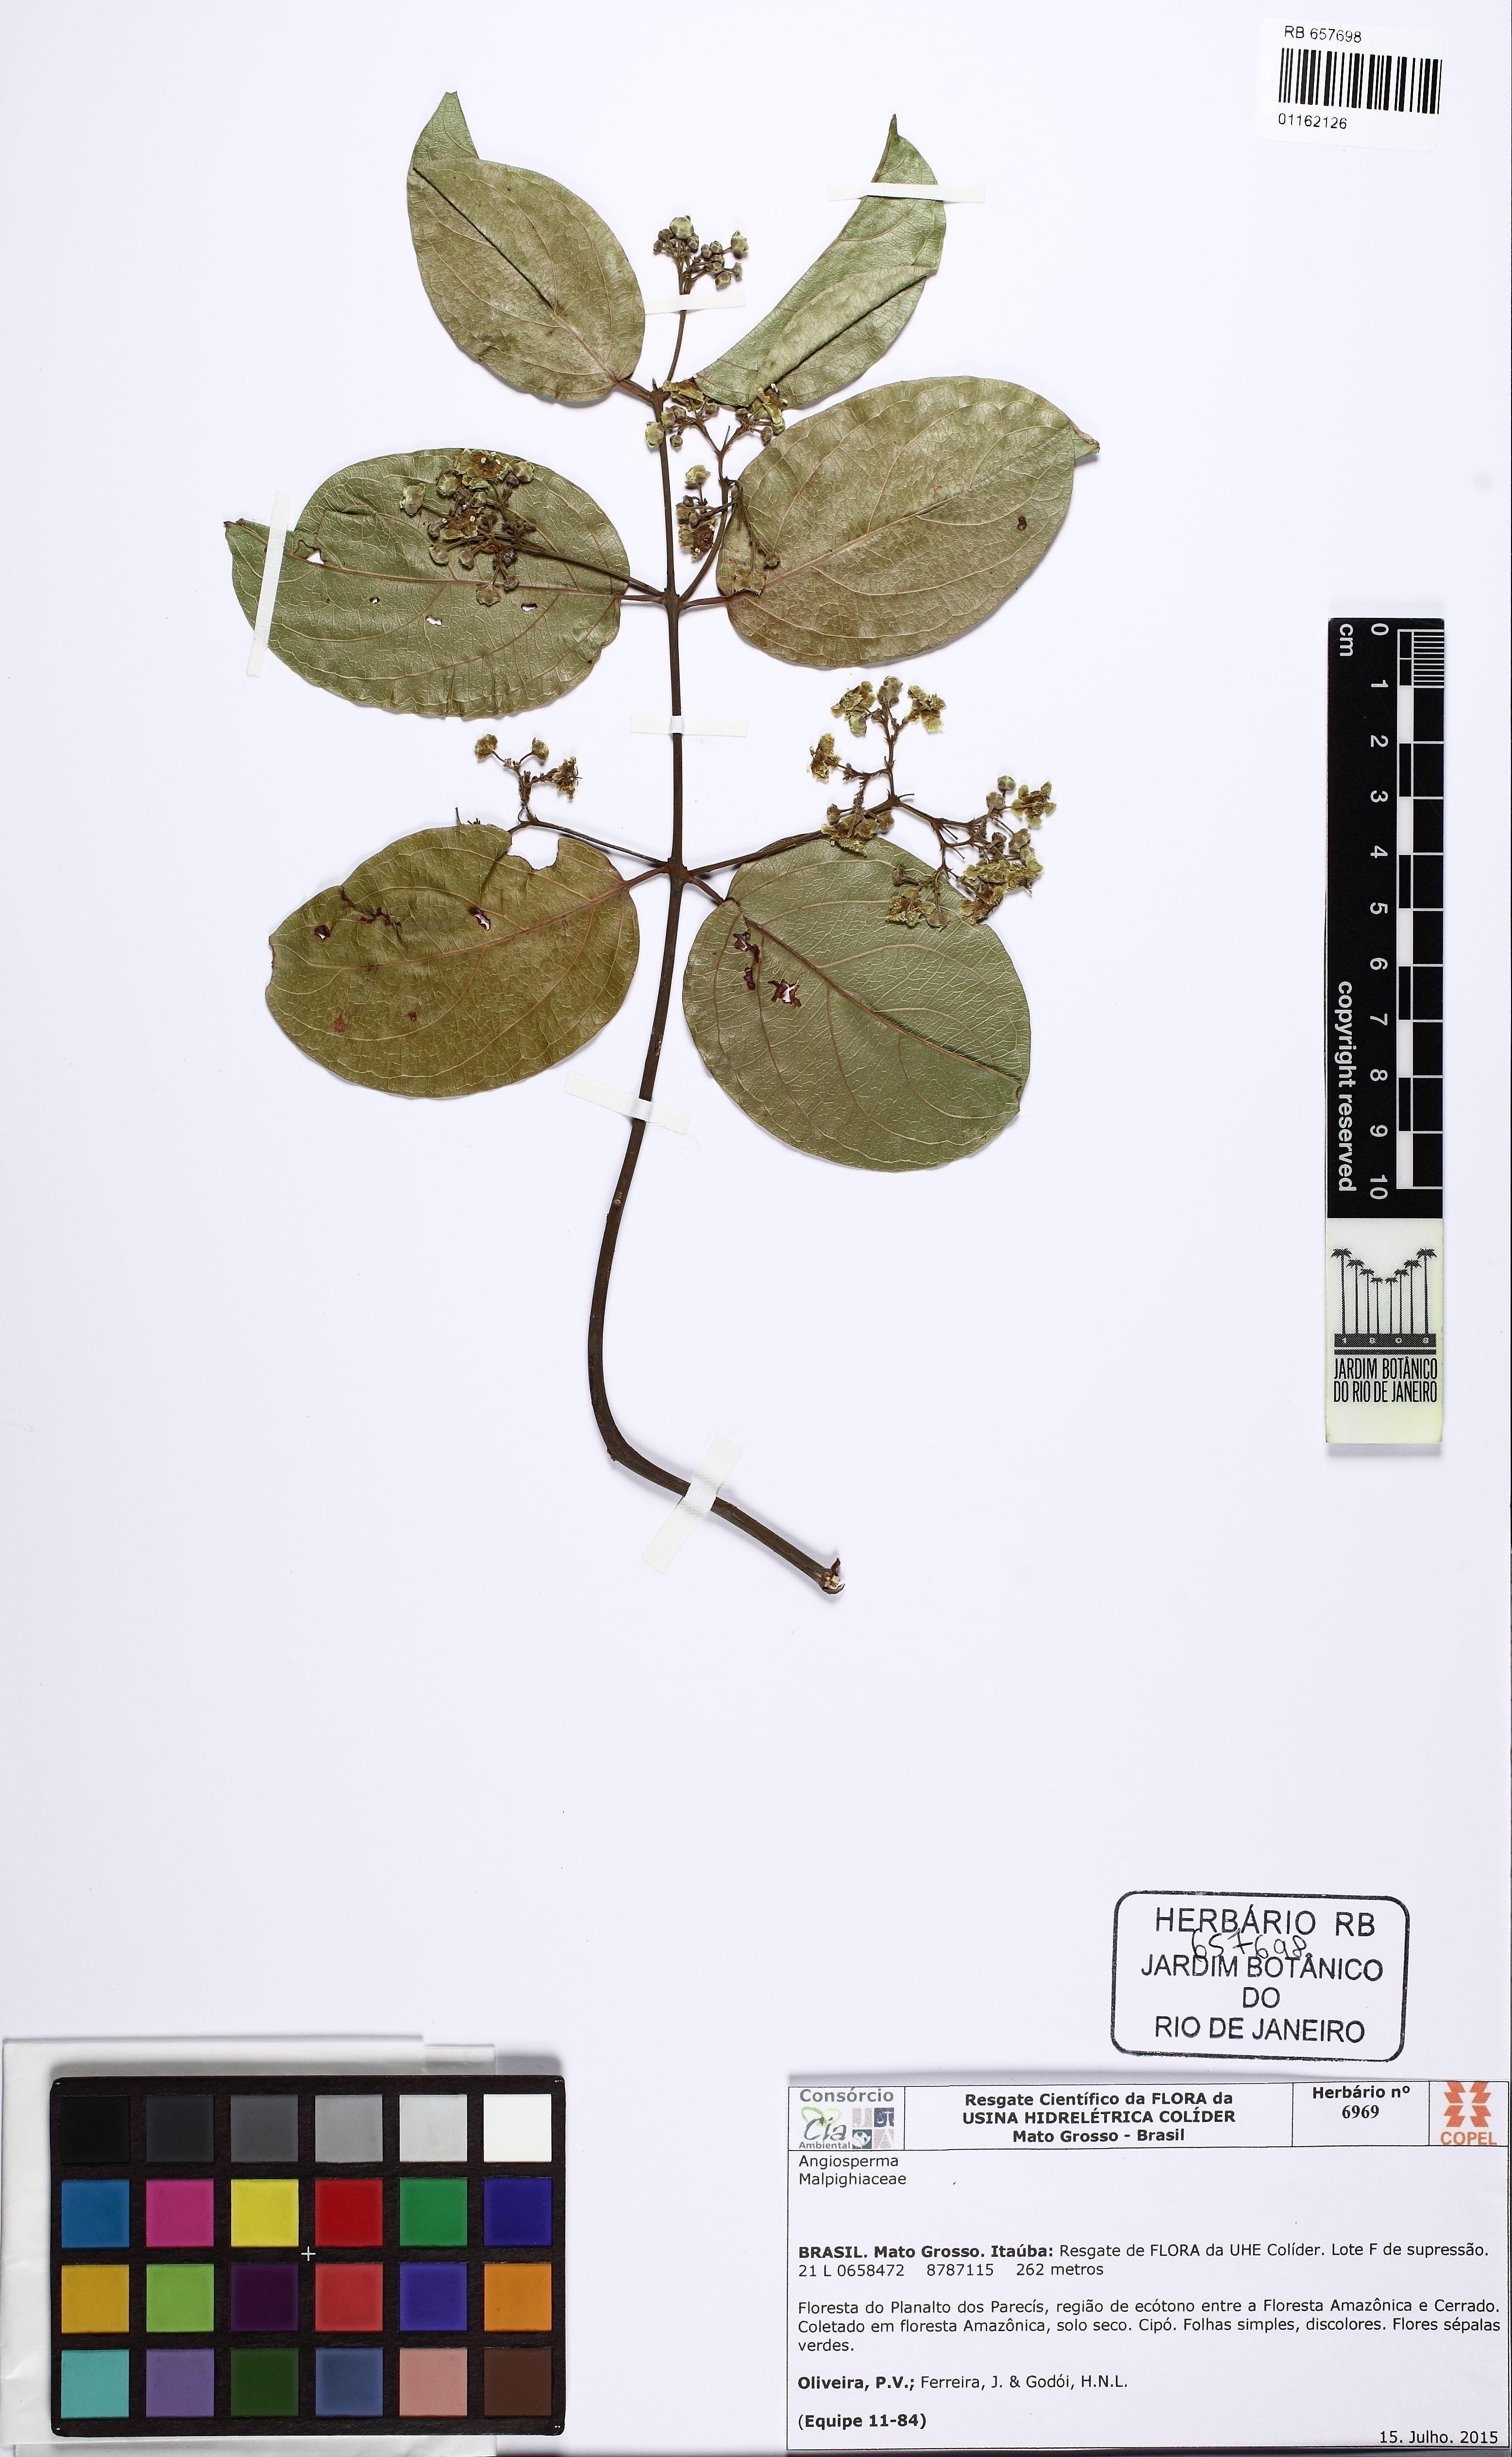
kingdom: Plantae
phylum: Tracheophyta
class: Magnoliopsida
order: Celastrales
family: Celastraceae
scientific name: Celastraceae
